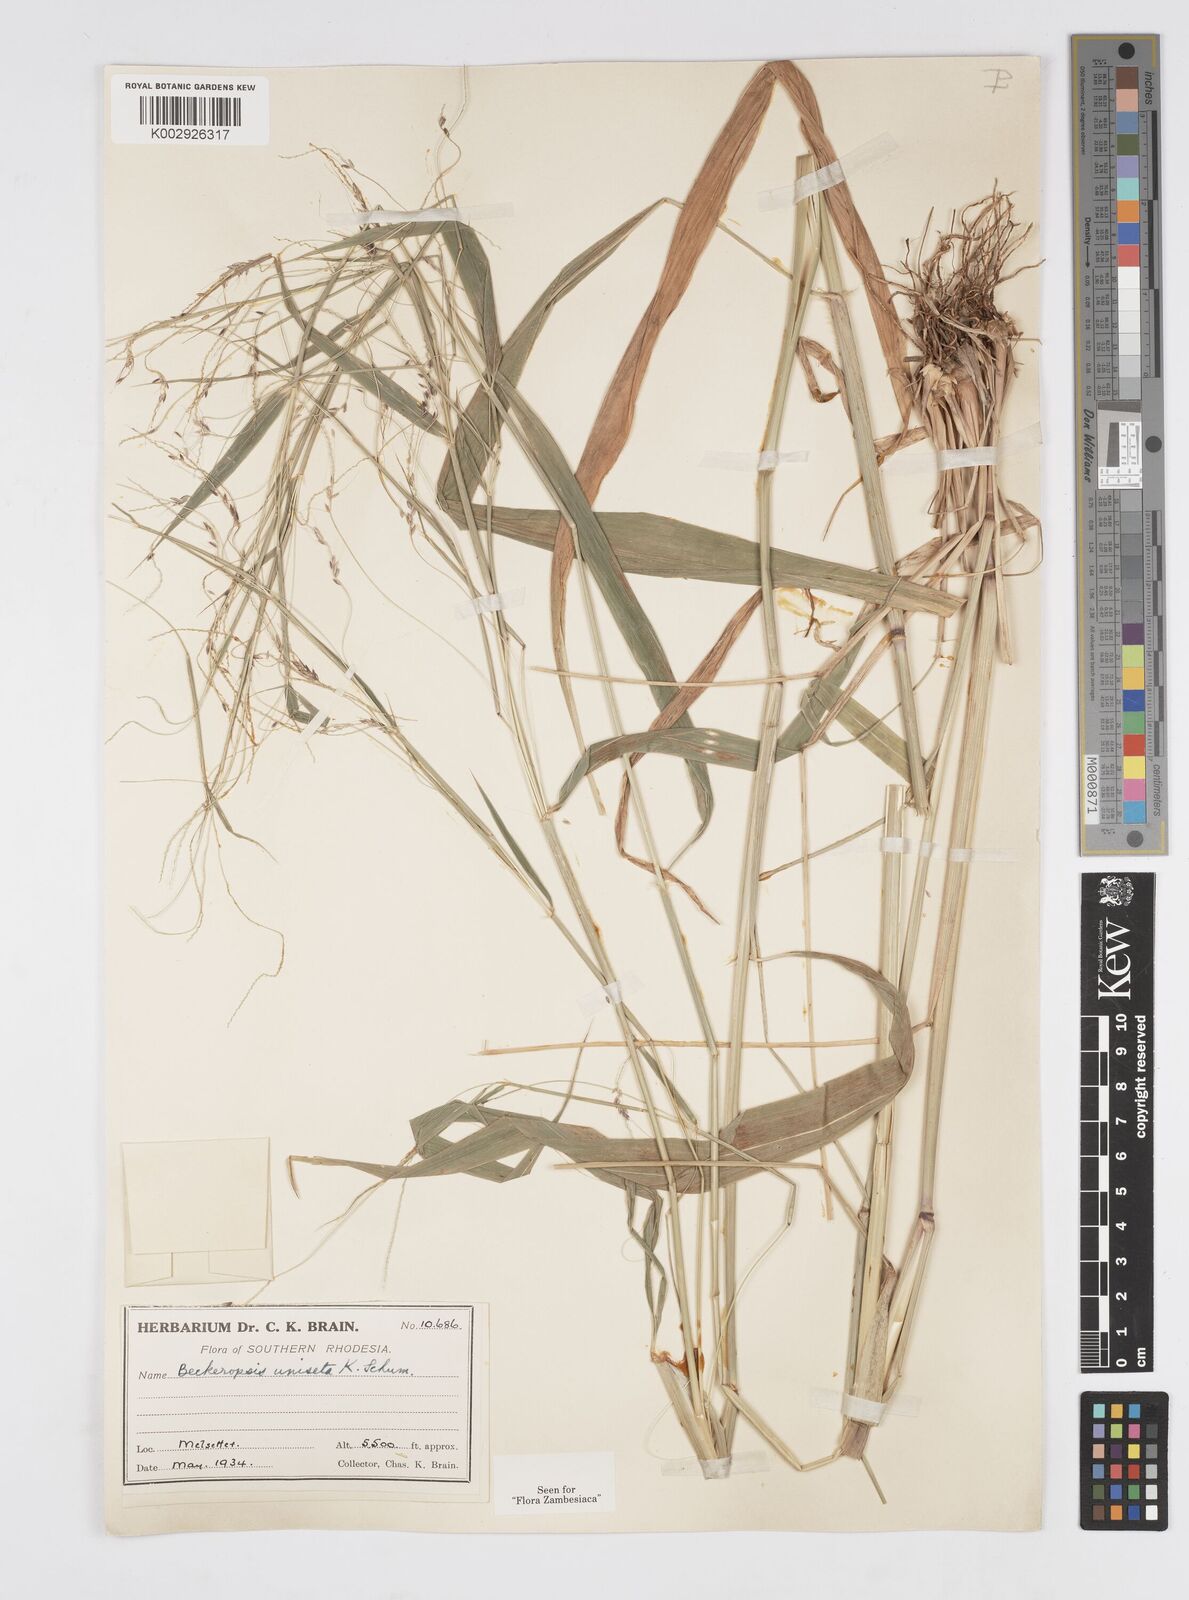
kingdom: Plantae
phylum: Tracheophyta
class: Liliopsida
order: Poales
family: Poaceae
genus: Cenchrus
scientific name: Cenchrus unisetus
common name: Natal grass
